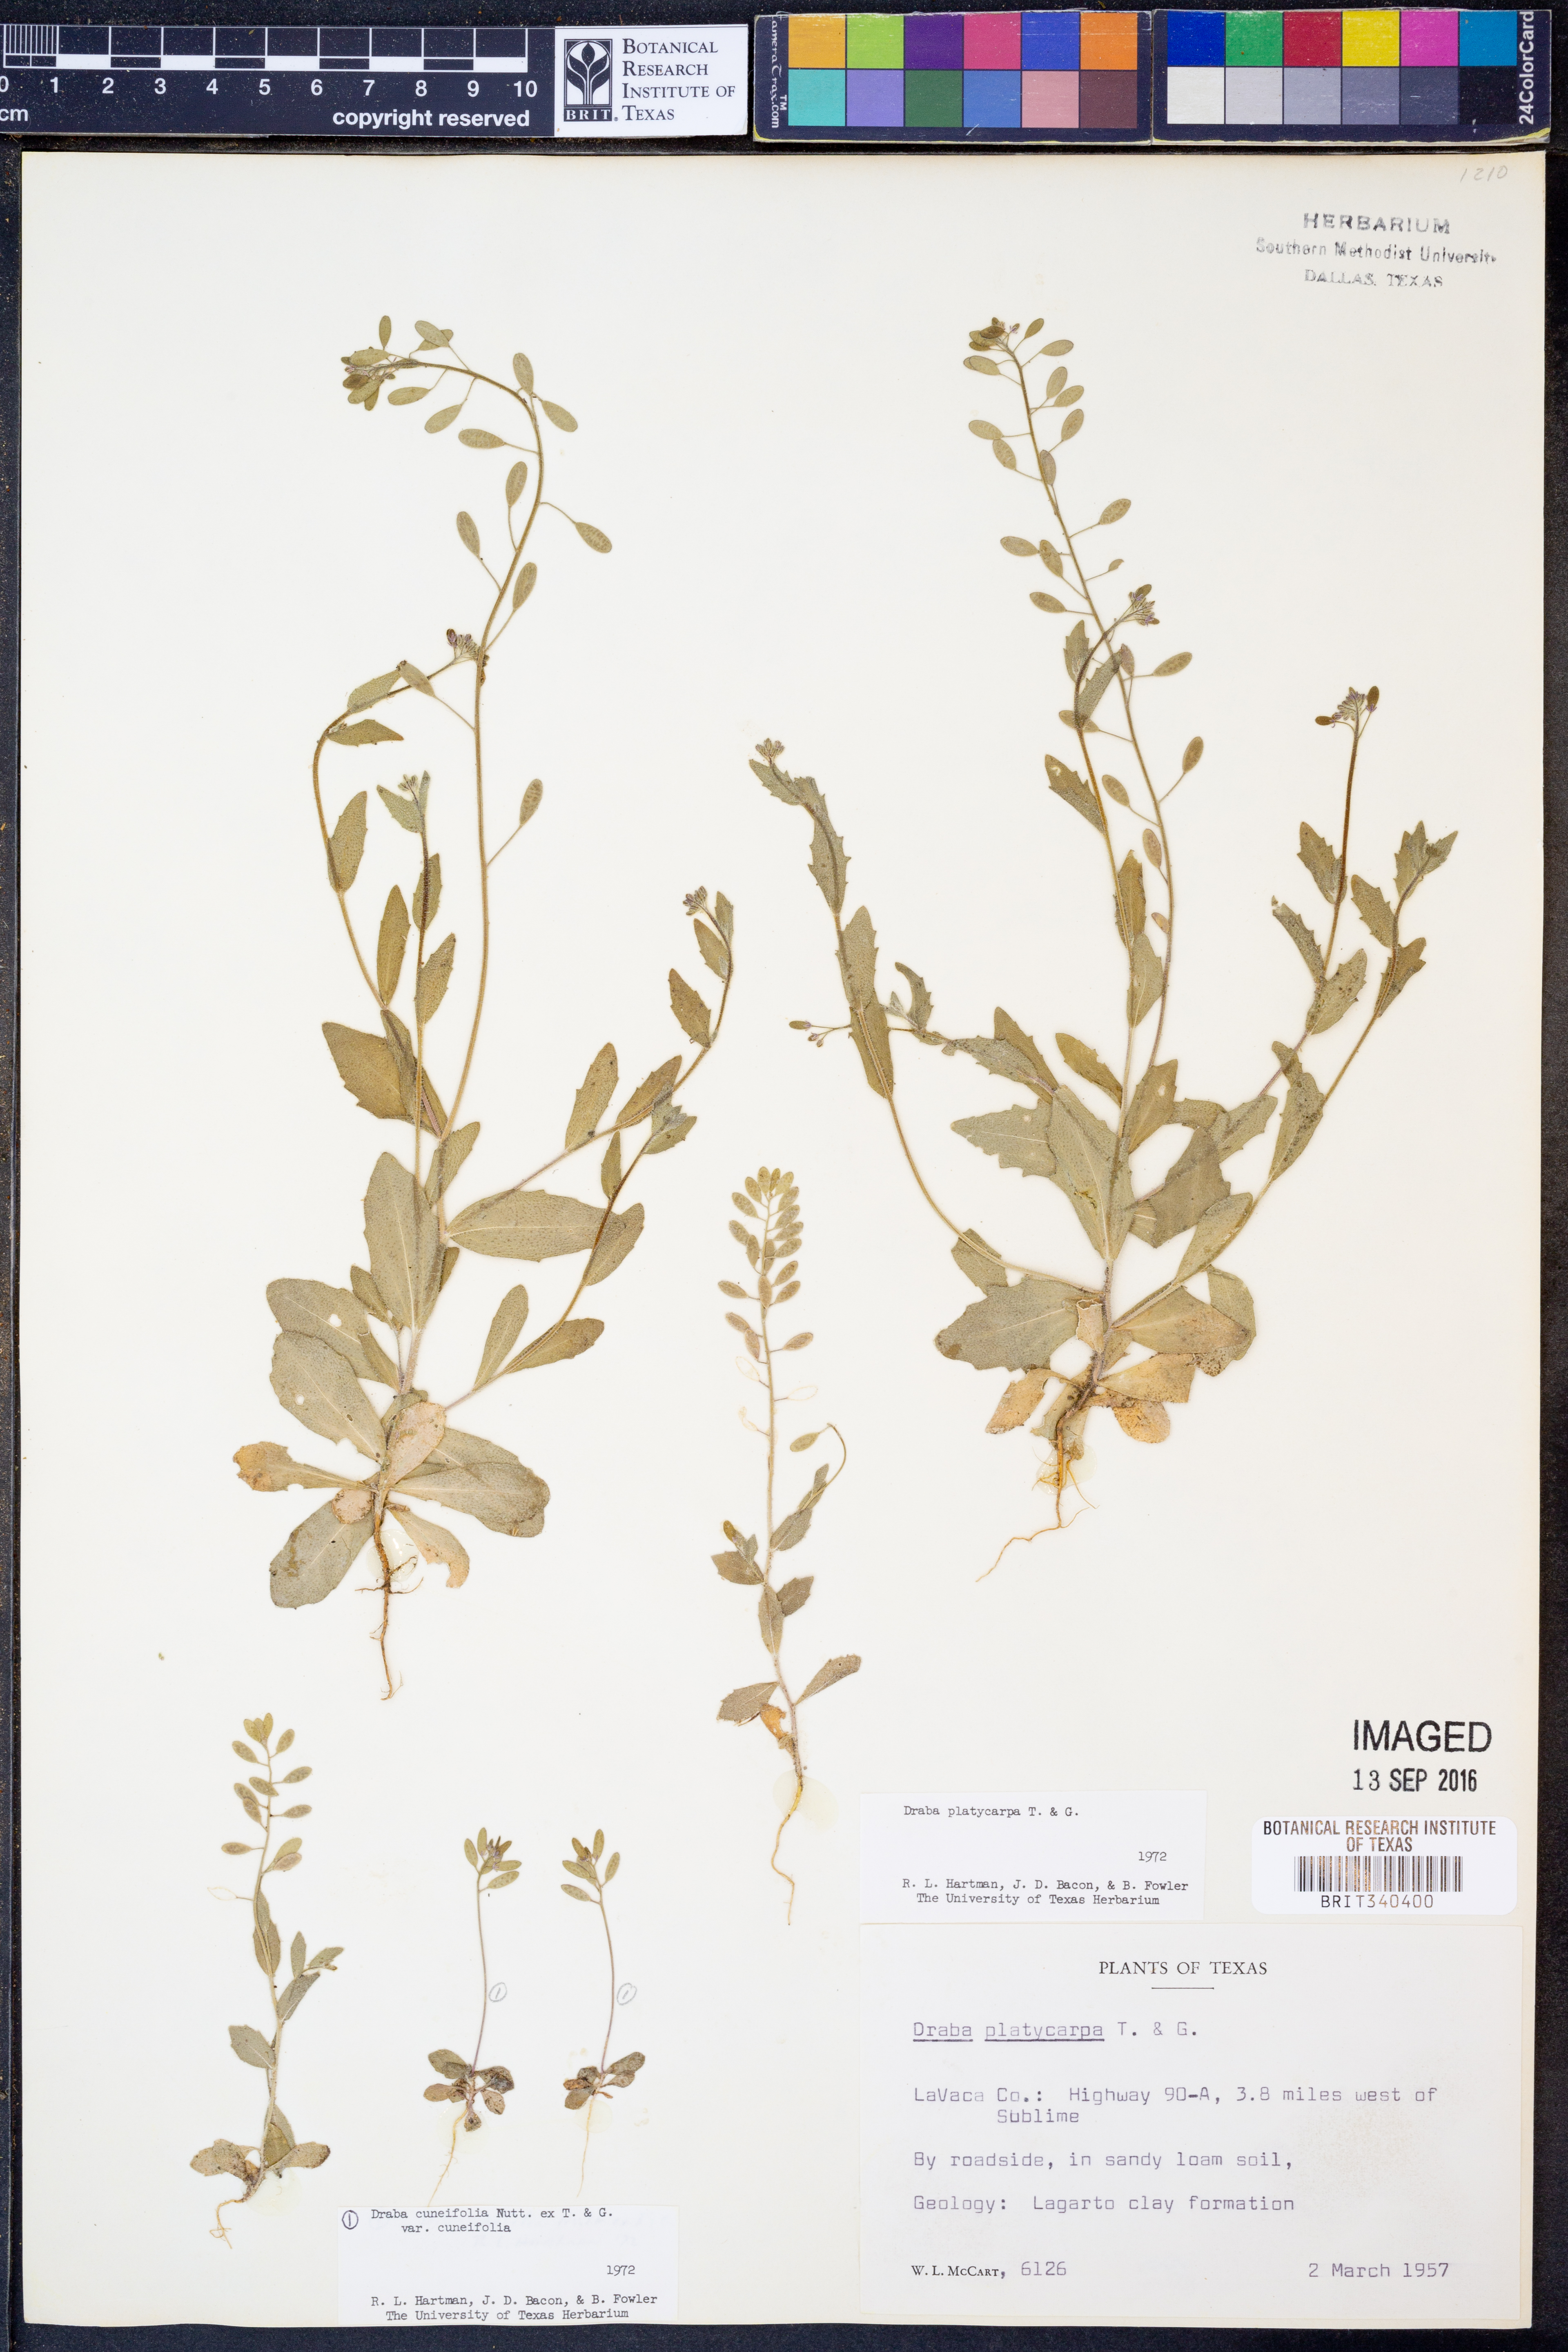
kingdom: Plantae
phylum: Tracheophyta
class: Magnoliopsida
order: Brassicales
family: Brassicaceae
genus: Tomostima
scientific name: Tomostima platycarpa
